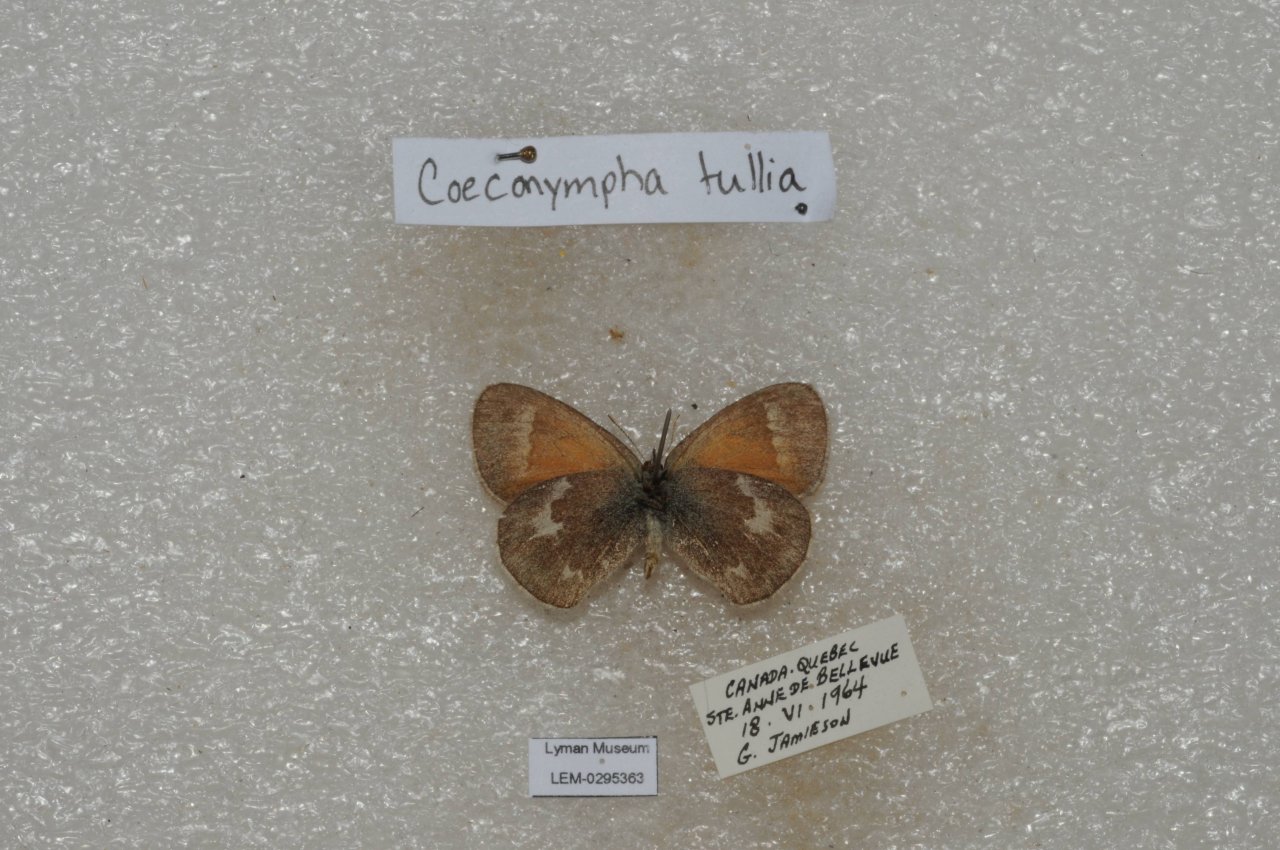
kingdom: Animalia
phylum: Arthropoda
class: Insecta
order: Lepidoptera
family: Nymphalidae
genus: Coenonympha
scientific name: Coenonympha tullia
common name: Large Heath
